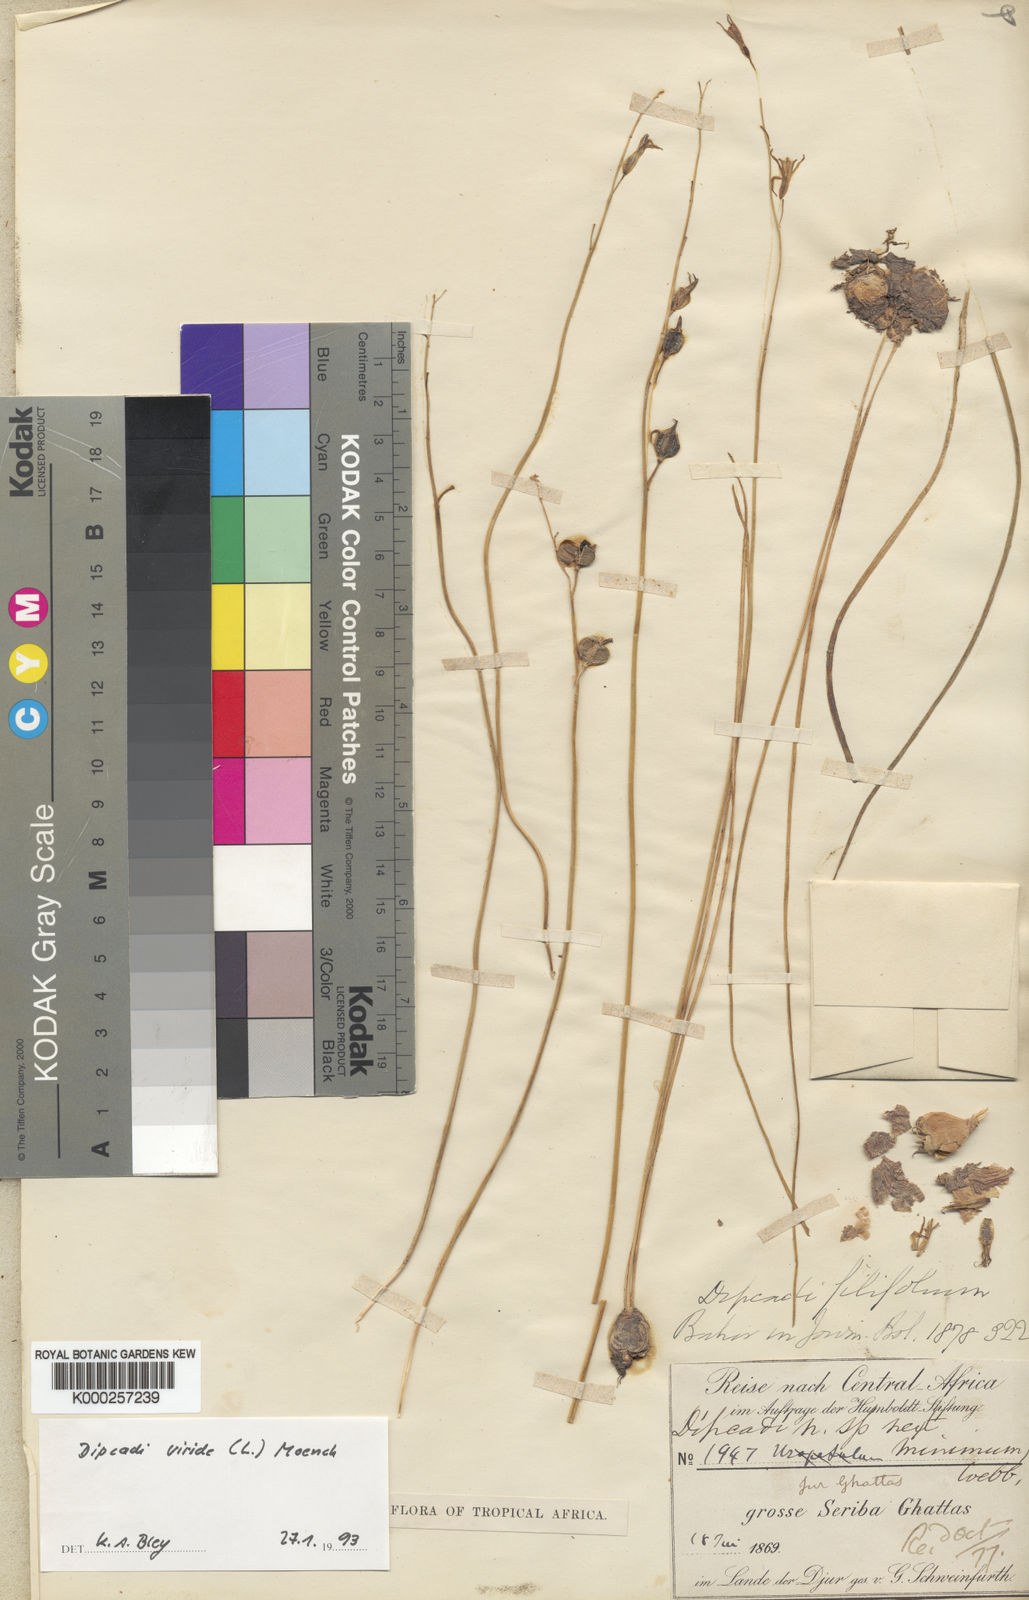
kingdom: Plantae
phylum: Tracheophyta
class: Liliopsida
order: Asparagales
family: Asparagaceae
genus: Dipcadi
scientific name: Dipcadi viride
